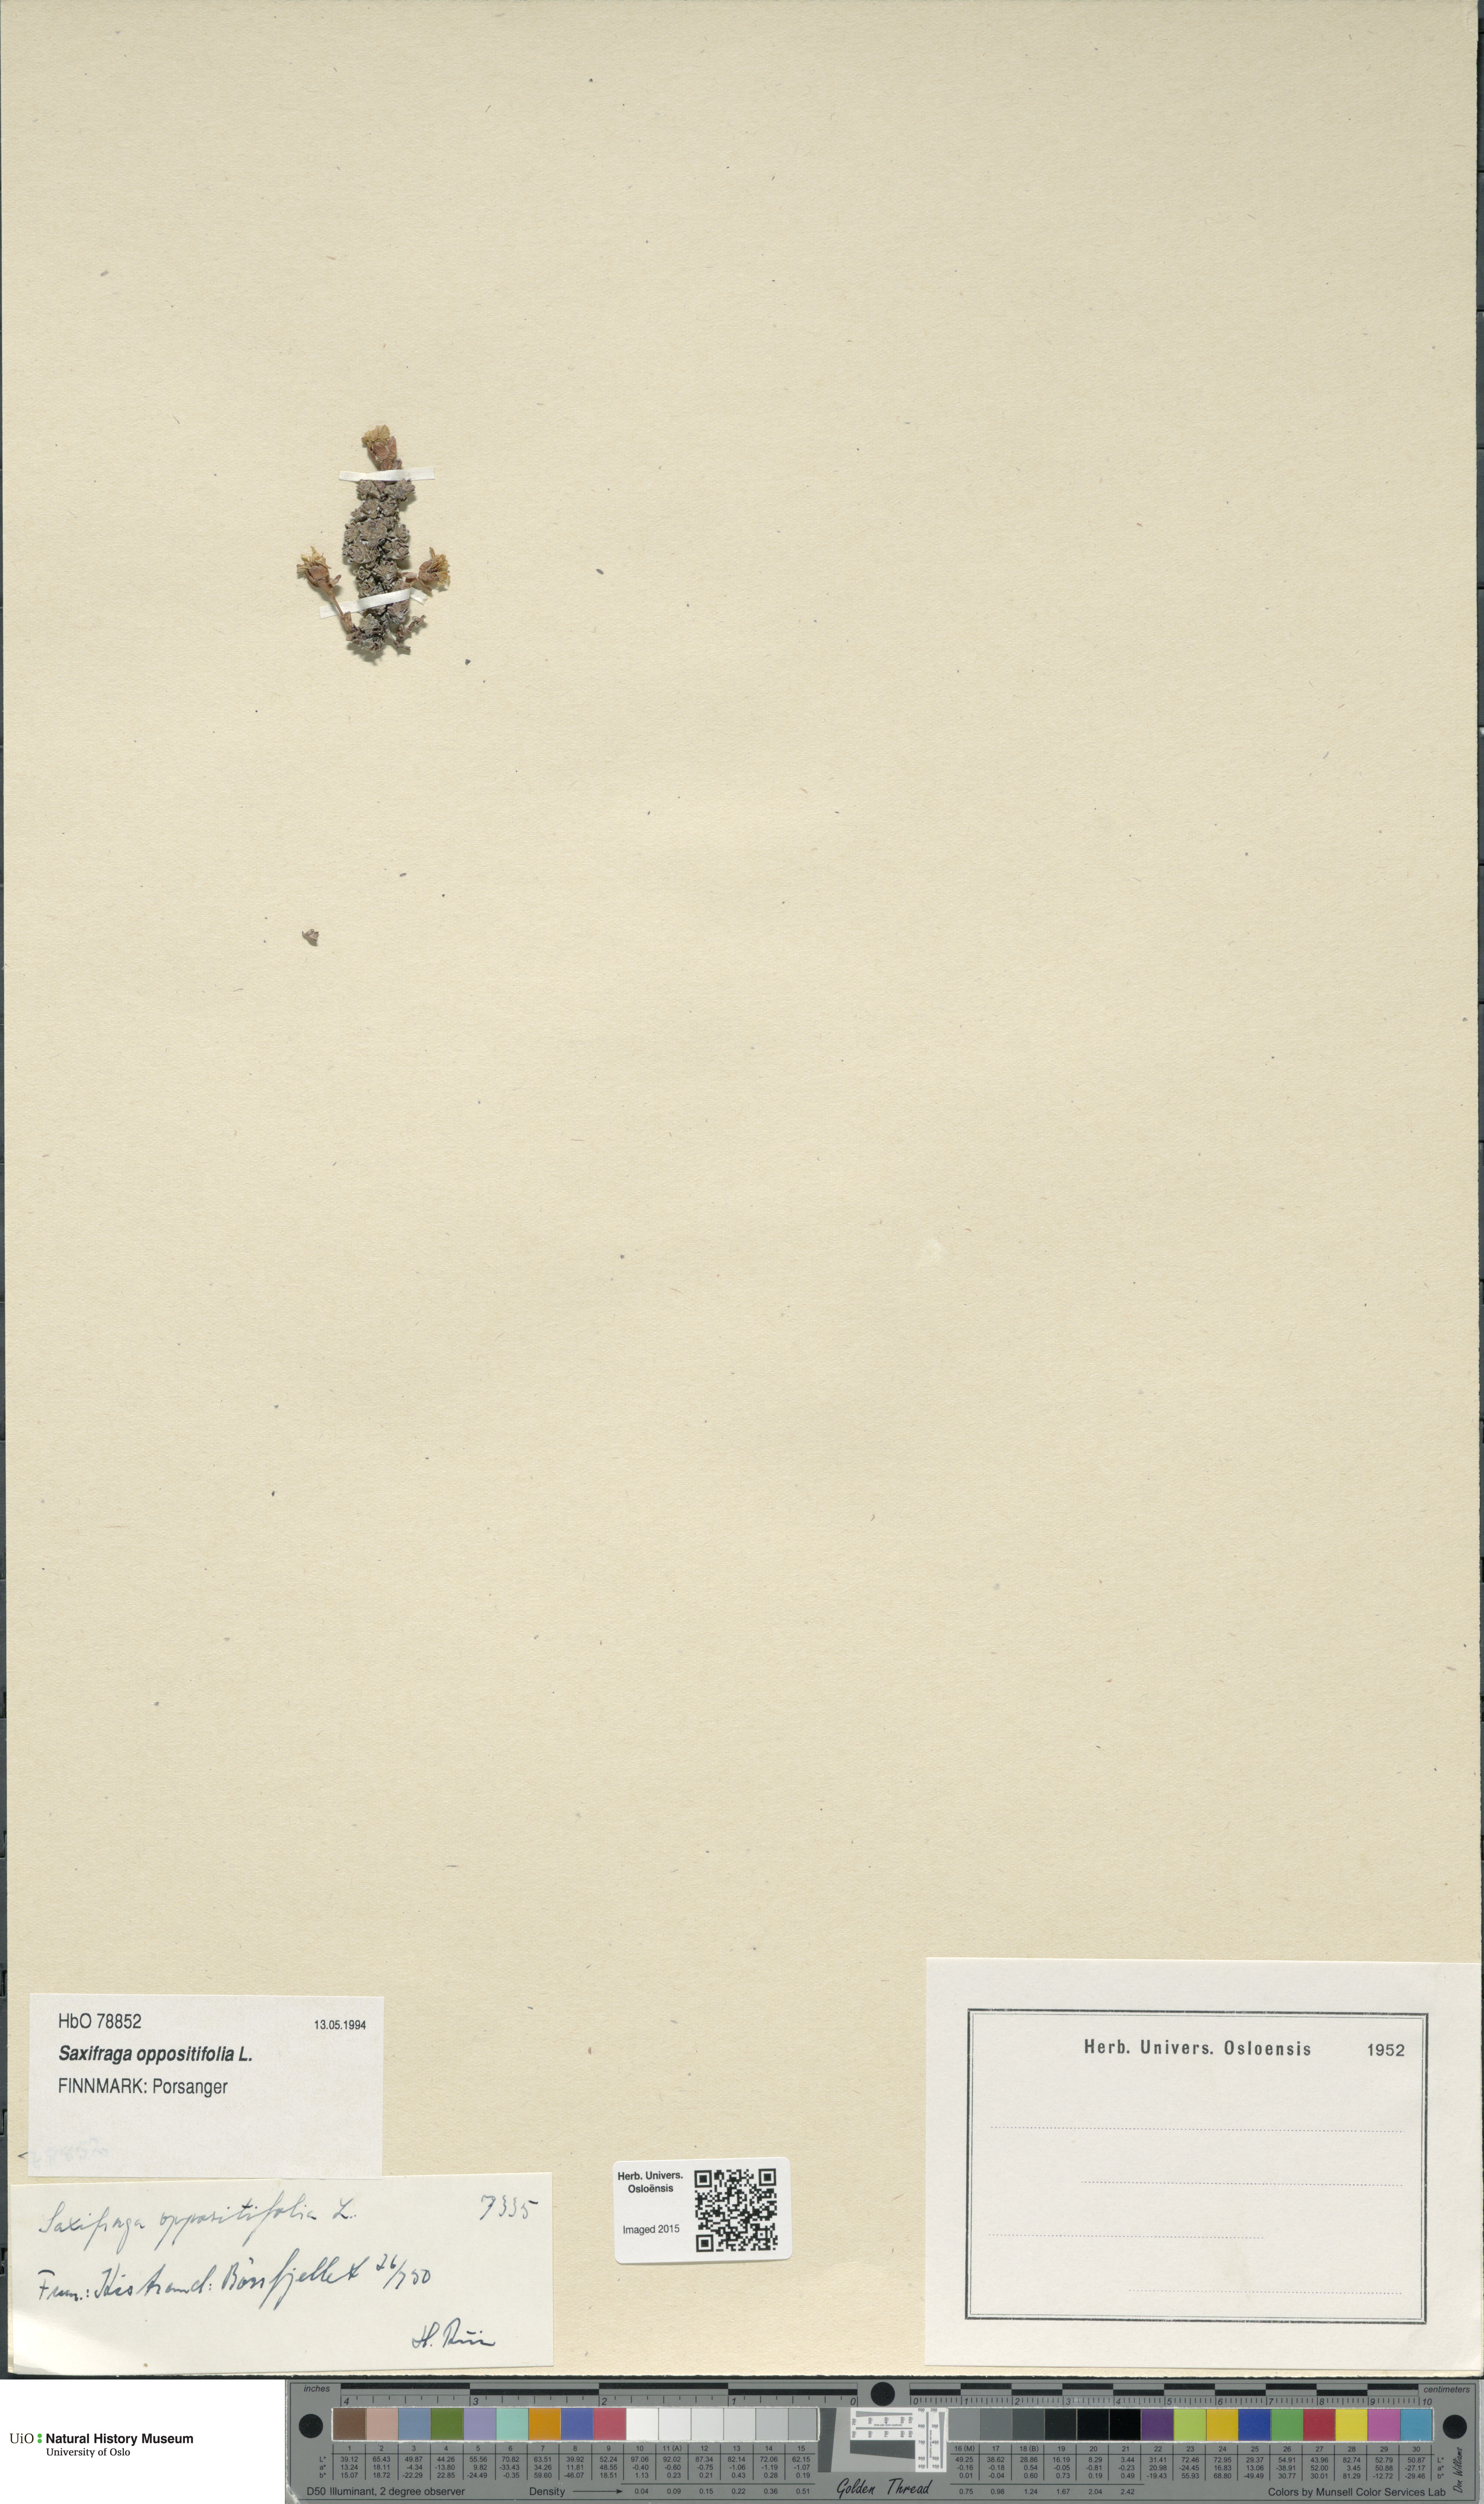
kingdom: Plantae
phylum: Tracheophyta
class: Magnoliopsida
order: Saxifragales
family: Saxifragaceae
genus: Saxifraga
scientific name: Saxifraga oppositifolia
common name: Purple saxifrage
